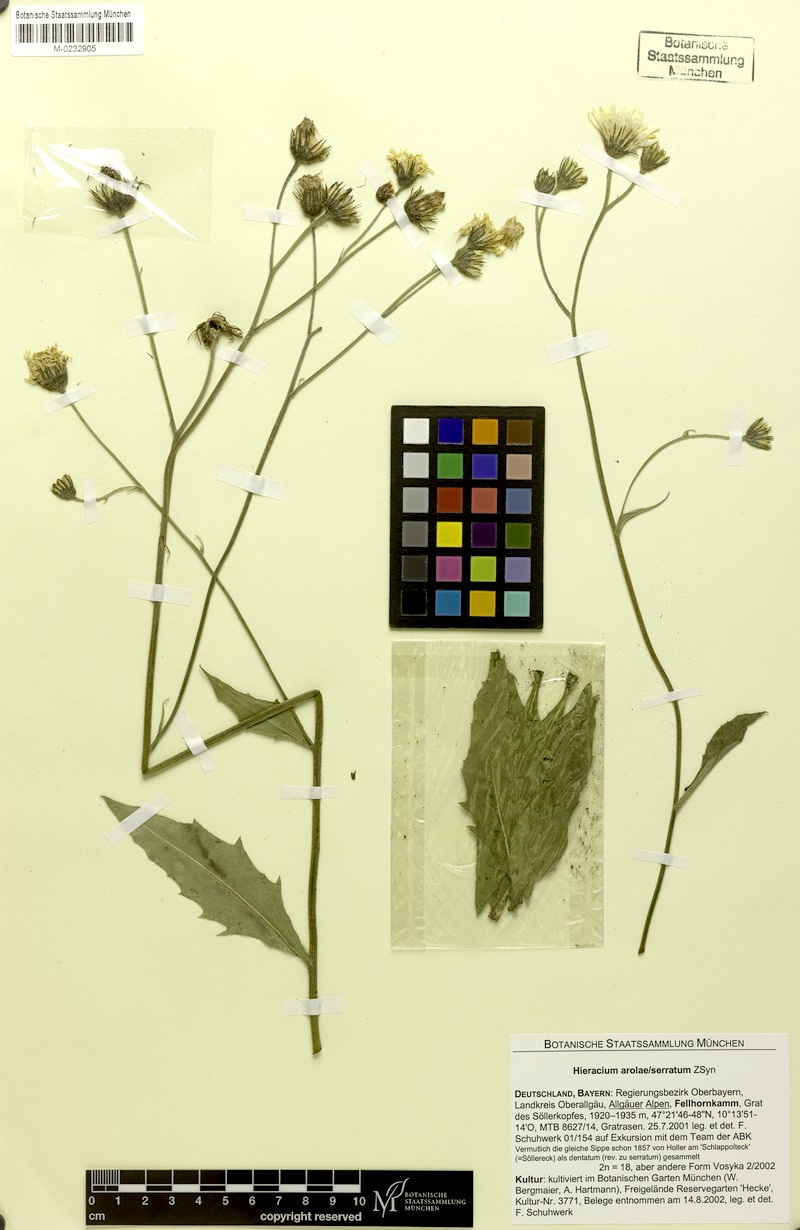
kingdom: Plantae
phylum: Tracheophyta
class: Magnoliopsida
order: Asterales
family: Asteraceae
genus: Hieracium
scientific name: Hieracium arolae
